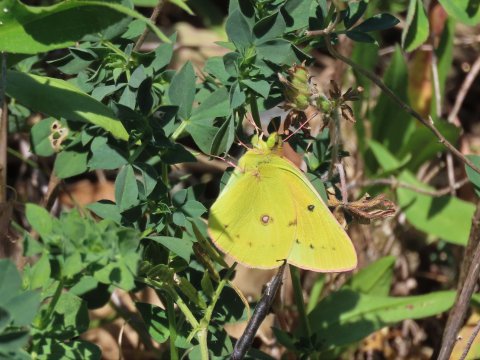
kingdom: Animalia
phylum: Arthropoda
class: Insecta
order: Lepidoptera
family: Pieridae
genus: Colias
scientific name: Colias eurytheme
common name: Orange Sulphur
